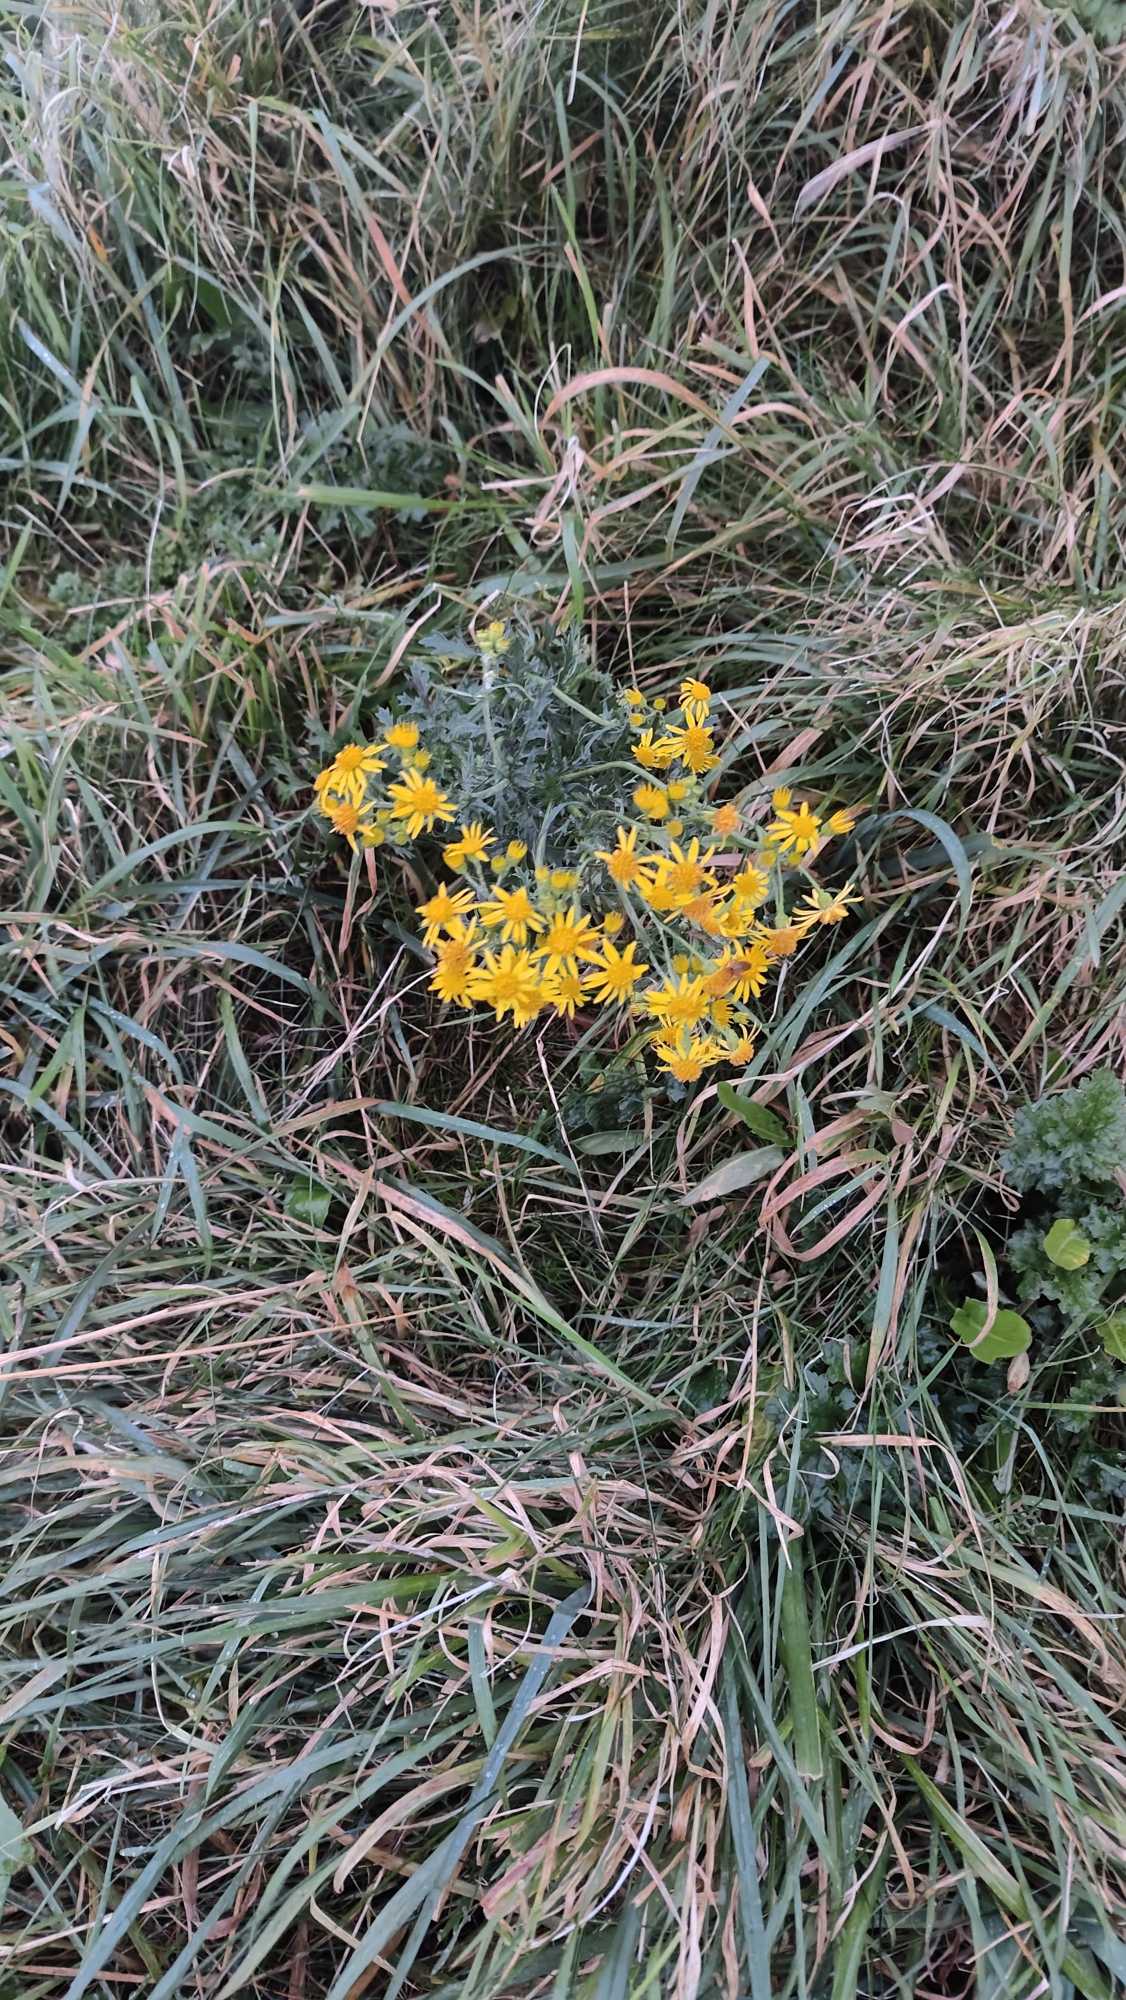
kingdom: Plantae
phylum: Tracheophyta
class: Magnoliopsida
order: Asterales
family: Asteraceae
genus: Jacobaea
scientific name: Jacobaea vulgaris
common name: Eng-brandbæger
